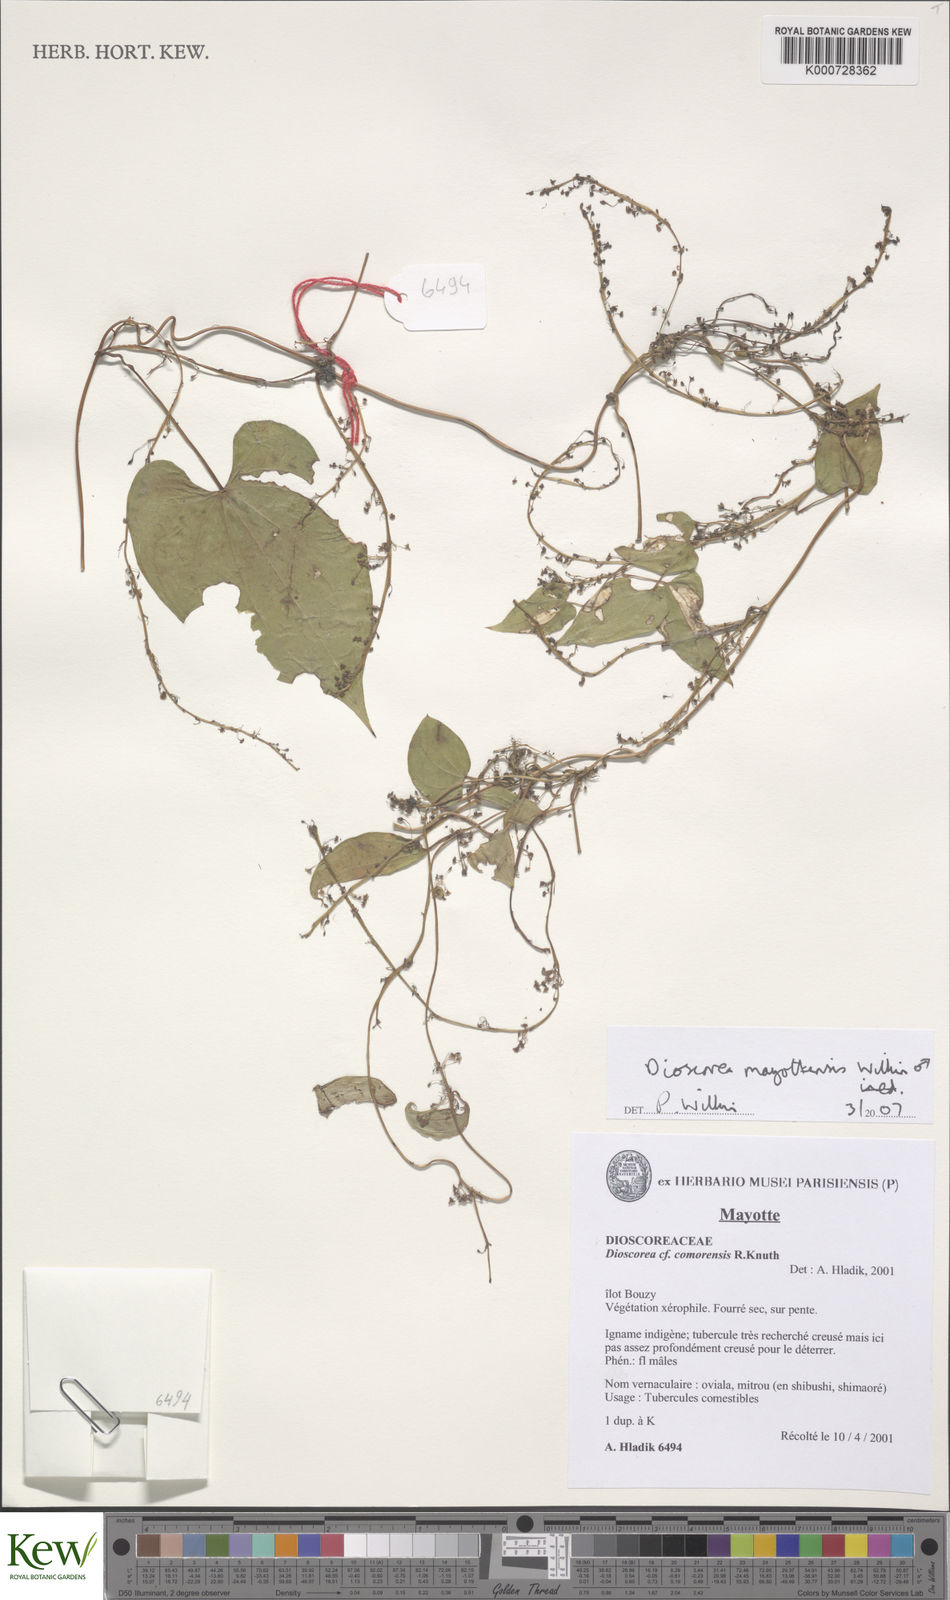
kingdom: Plantae
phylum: Tracheophyta
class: Liliopsida
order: Dioscoreales
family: Dioscoreaceae
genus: Dioscorea
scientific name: Dioscorea mayottensis
